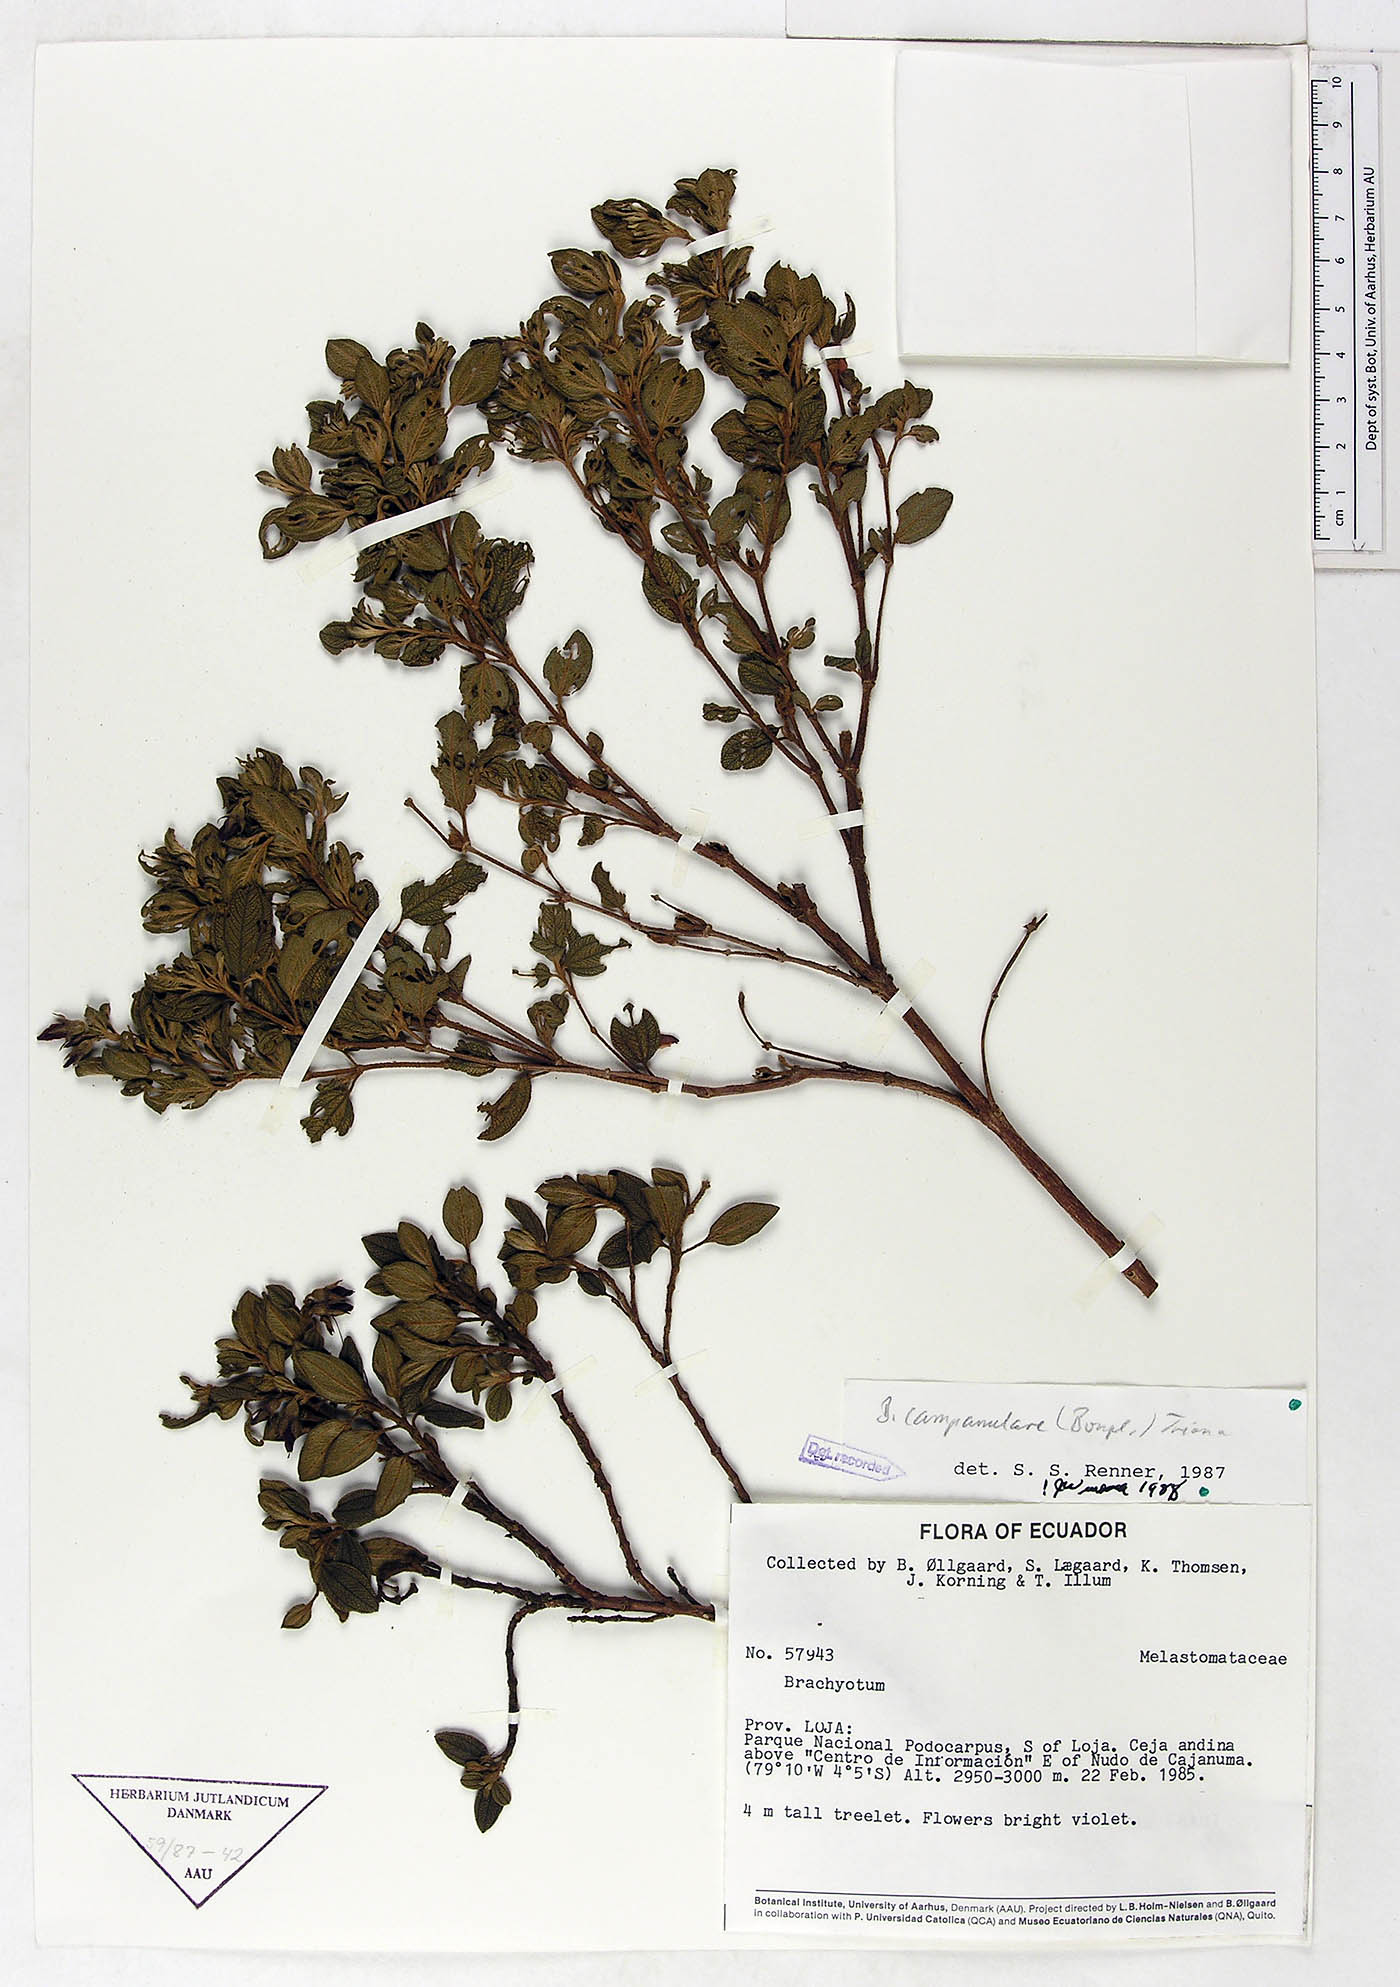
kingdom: Plantae
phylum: Tracheophyta
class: Magnoliopsida
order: Myrtales
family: Melastomataceae
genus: Brachyotum
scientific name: Brachyotum campanulare
